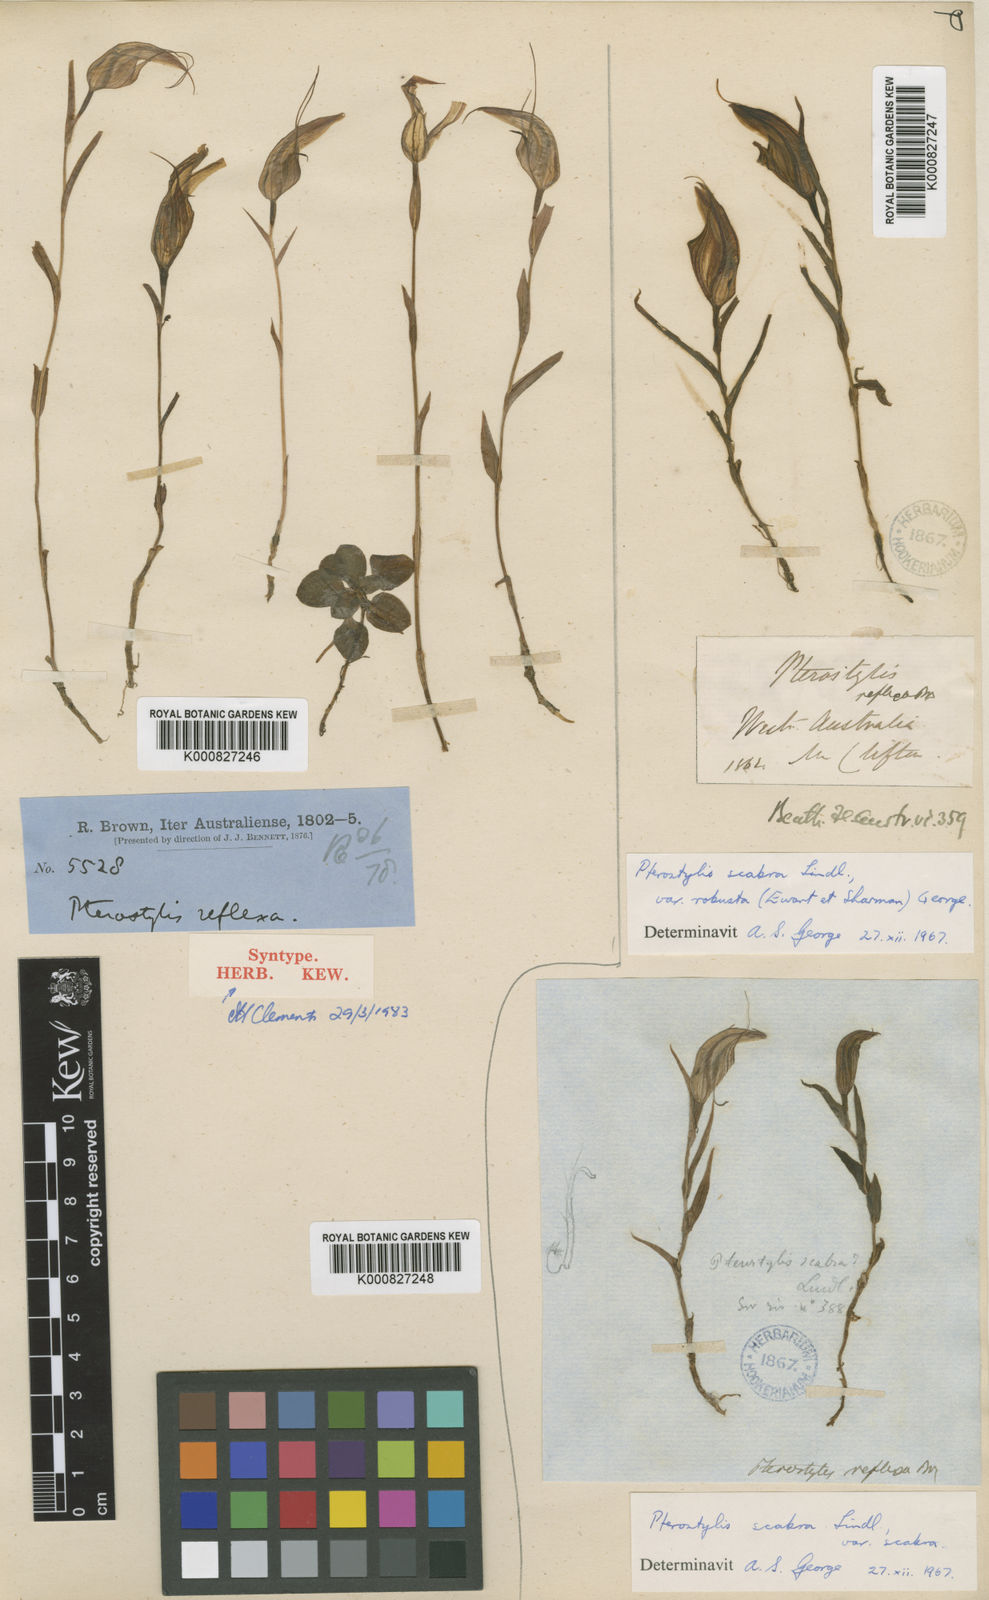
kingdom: Plantae
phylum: Tracheophyta
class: Liliopsida
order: Asparagales
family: Orchidaceae
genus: Pterostylis
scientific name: Pterostylis reflexa
